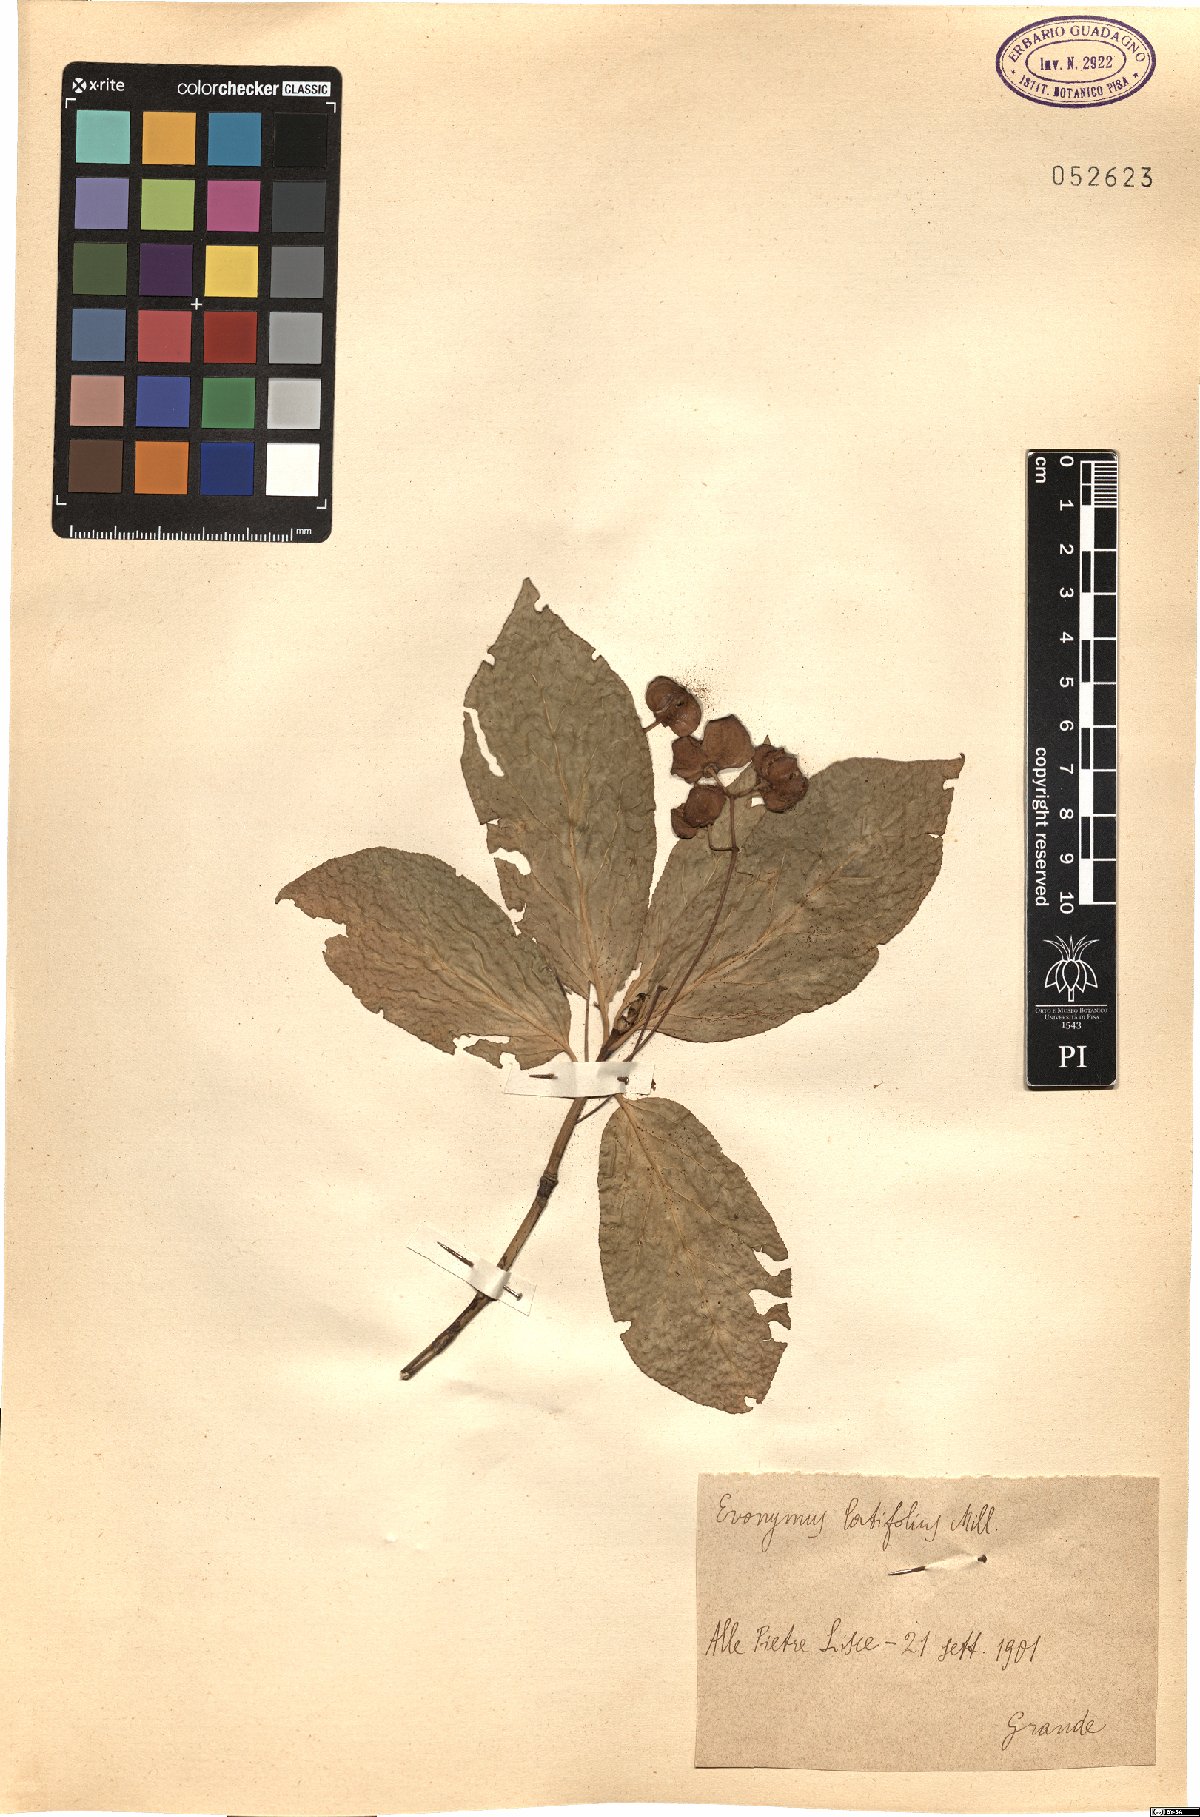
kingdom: Plantae
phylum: Tracheophyta
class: Magnoliopsida
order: Celastrales
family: Celastraceae
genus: Euonymus
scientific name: Euonymus latifolius
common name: Large-leaved spindle
